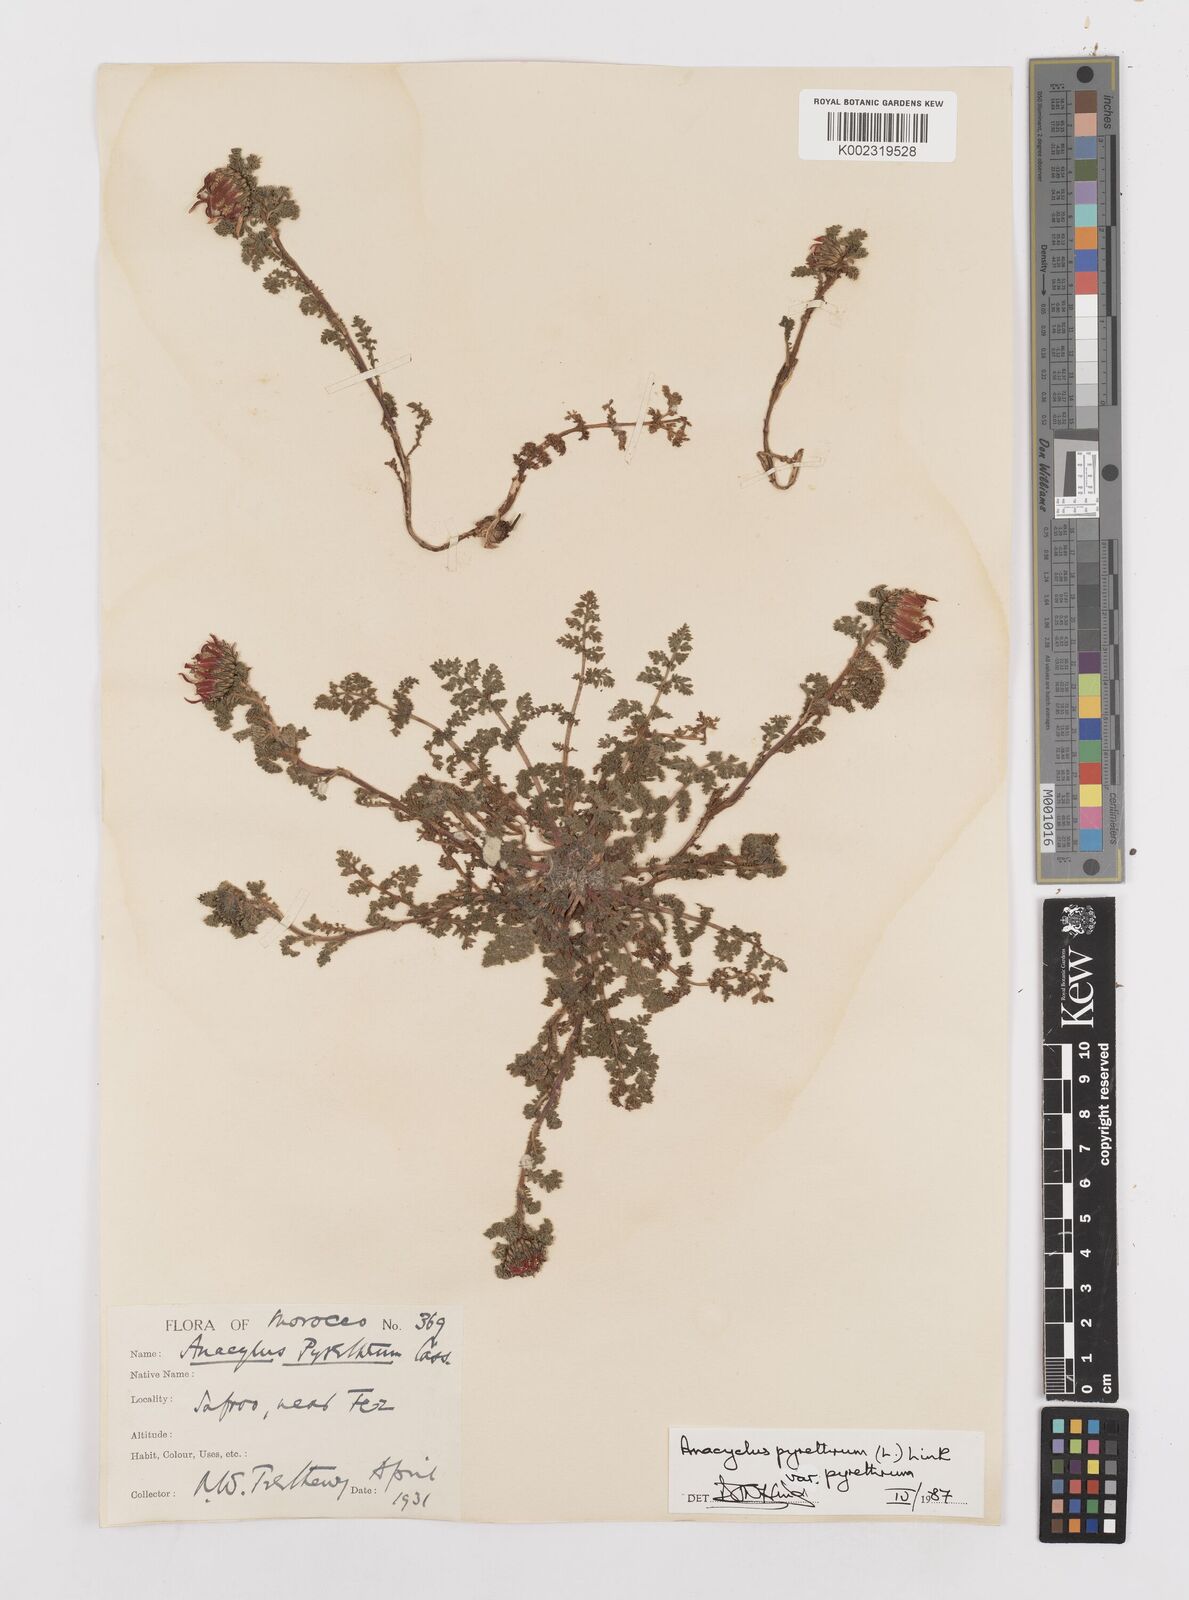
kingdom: Plantae
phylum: Tracheophyta
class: Magnoliopsida
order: Asterales
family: Asteraceae
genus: Anacyclus
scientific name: Anacyclus pyrethrum
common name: Mt. atlas daisy
